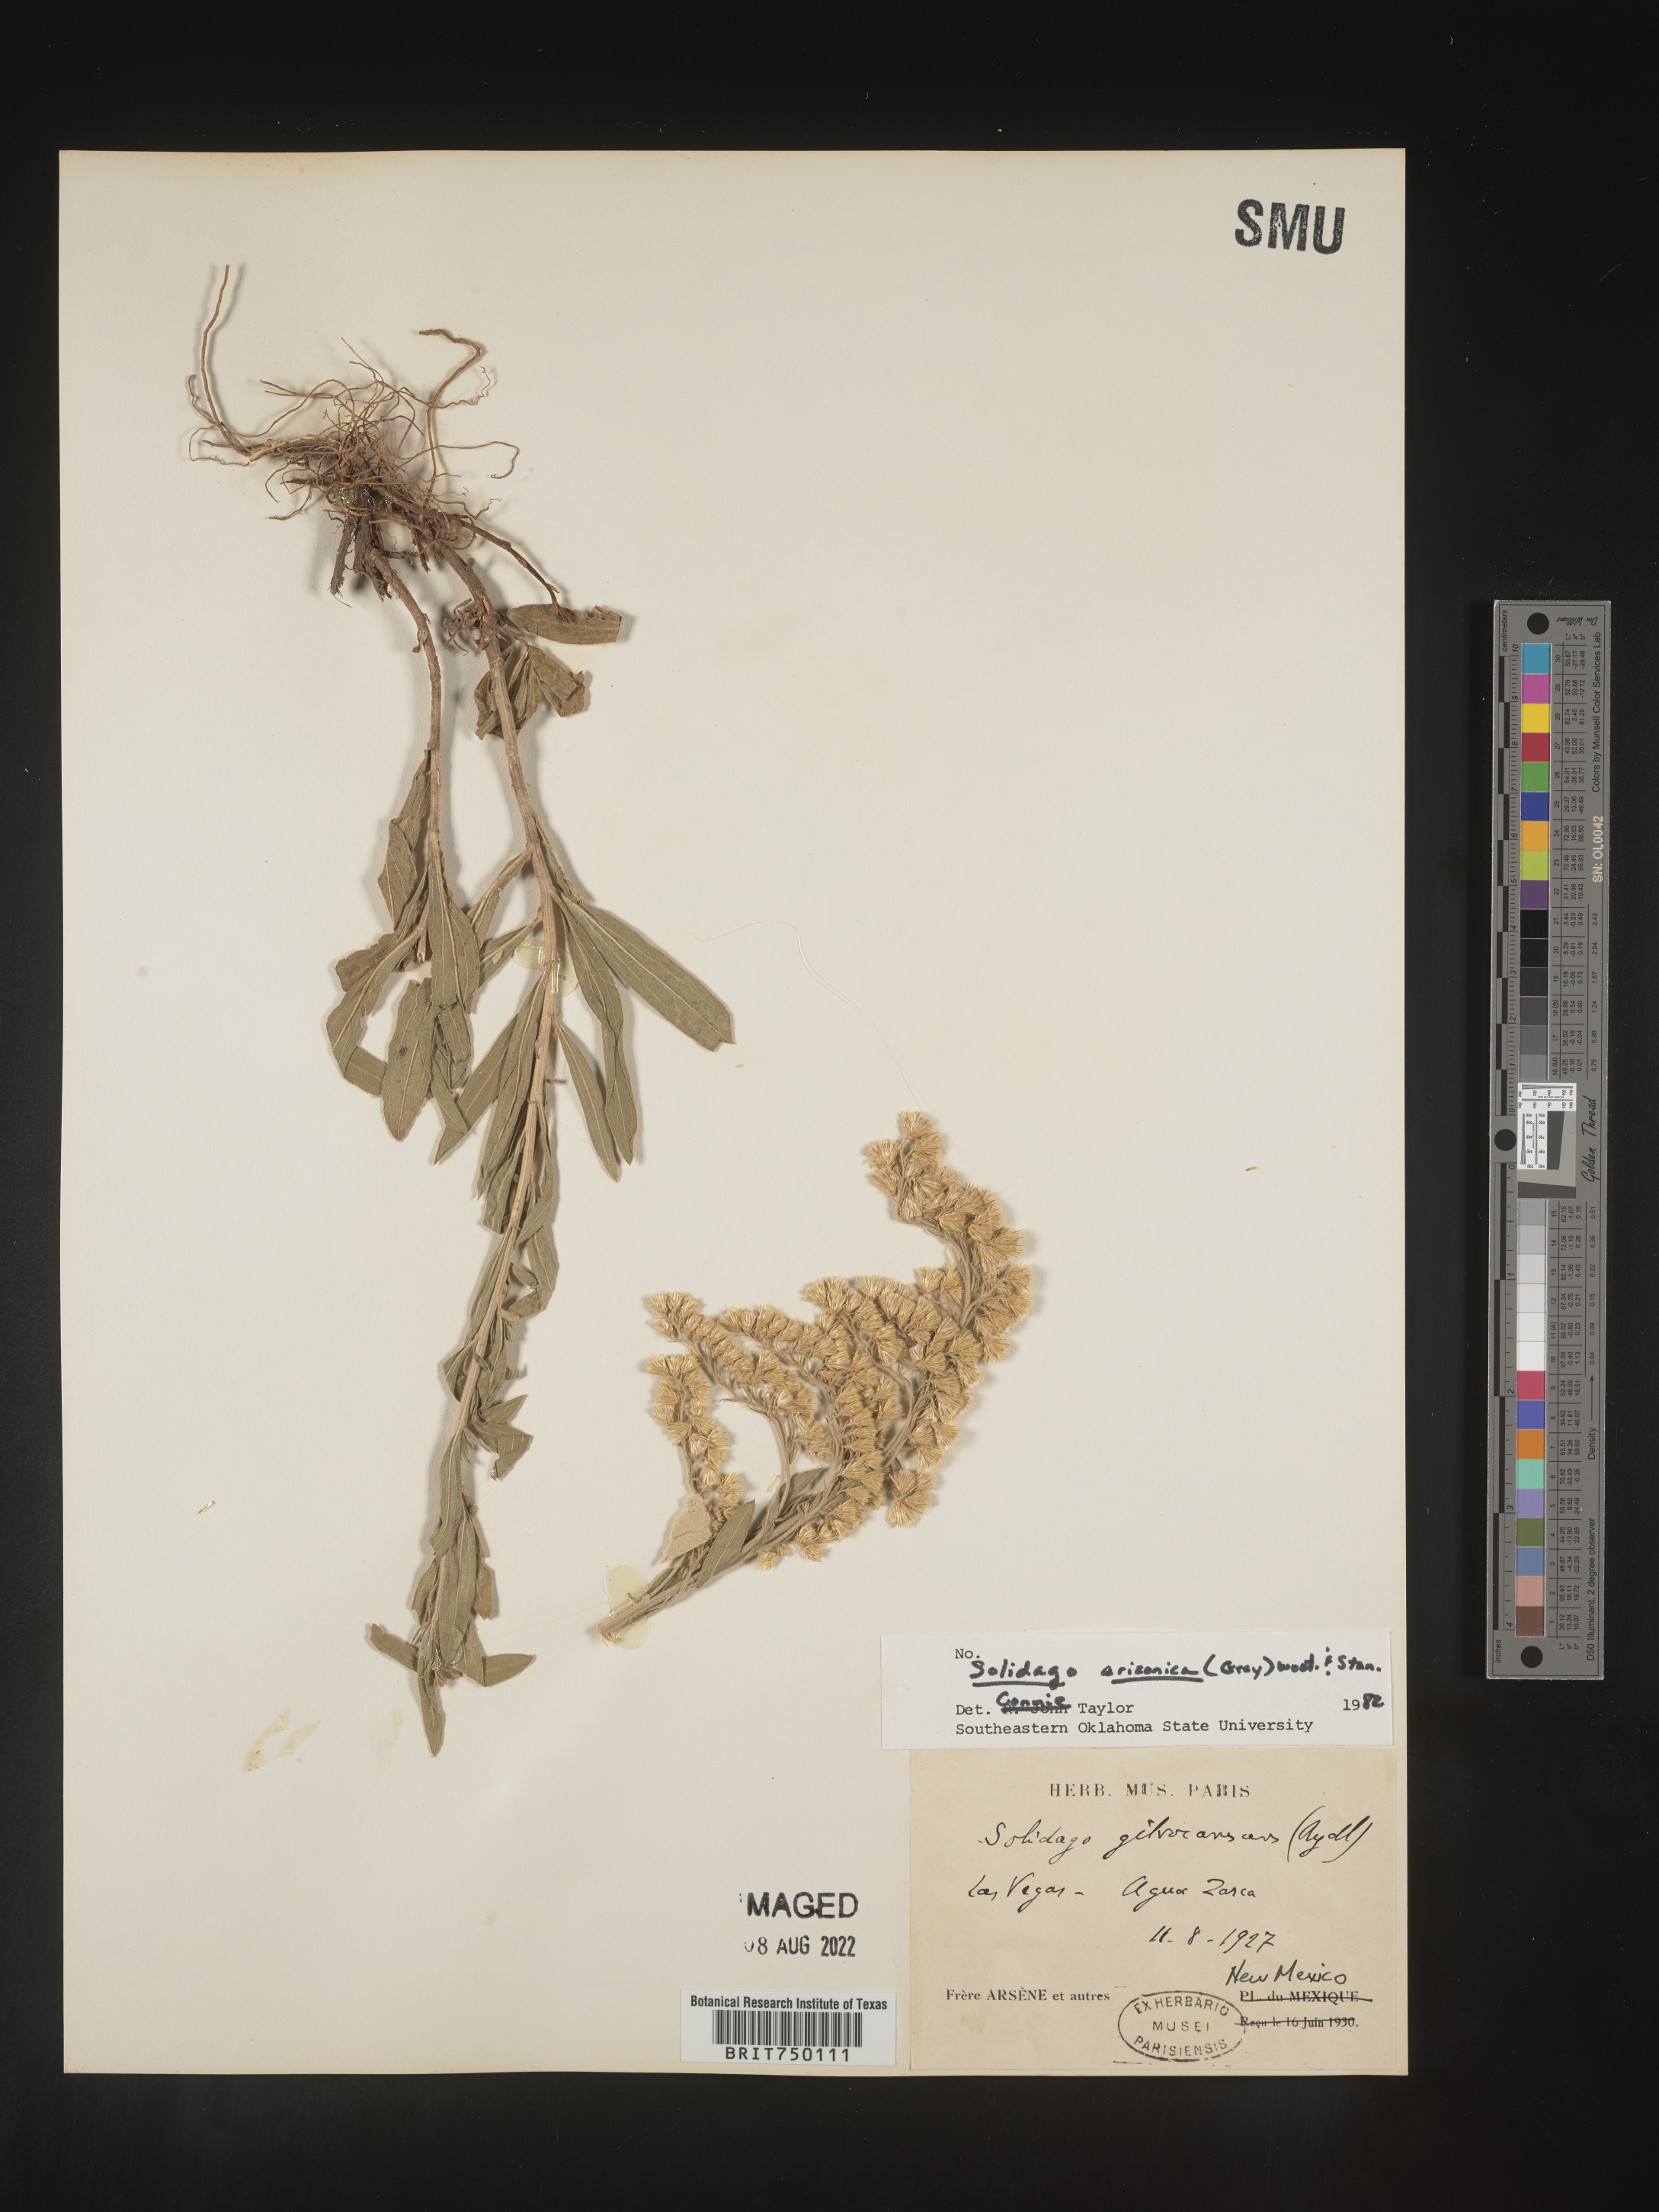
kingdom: Plantae
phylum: Tracheophyta
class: Magnoliopsida
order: Asterales
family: Asteraceae
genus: Solidago
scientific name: Solidago velutina
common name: Three-nerve goldenrod
